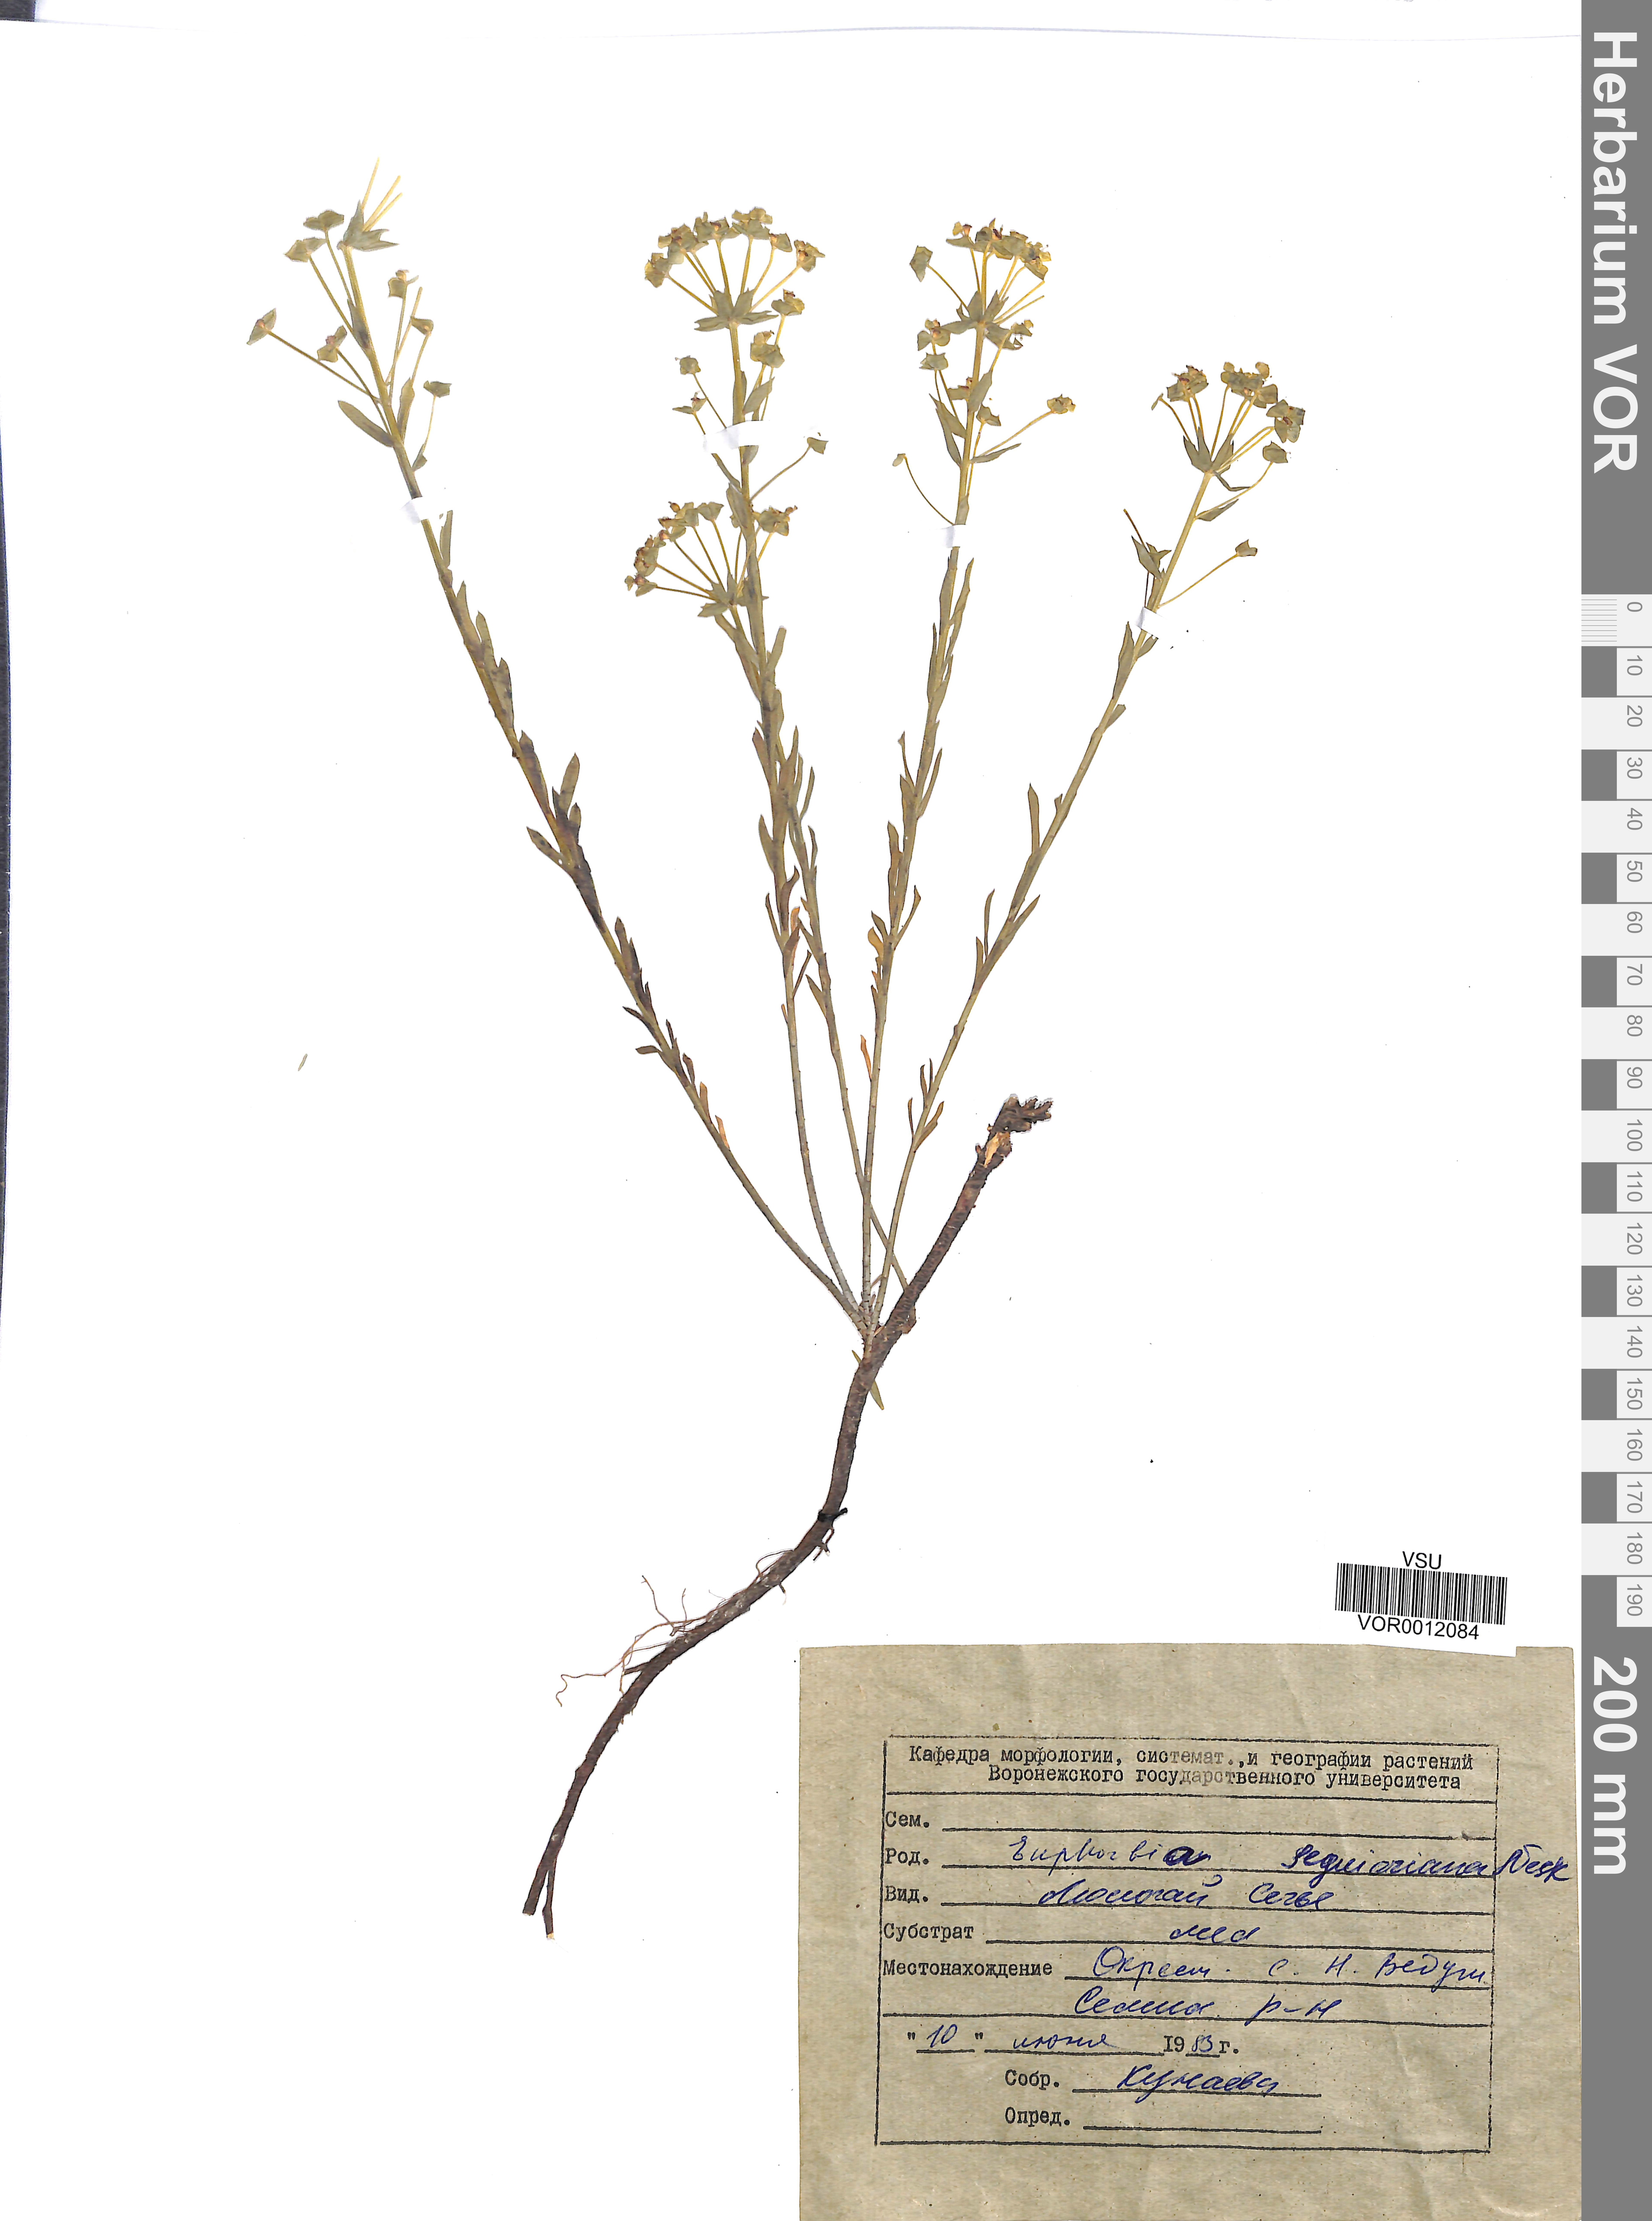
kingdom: Plantae
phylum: Tracheophyta
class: Magnoliopsida
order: Malpighiales
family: Euphorbiaceae
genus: Euphorbia
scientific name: Euphorbia seguieriana
